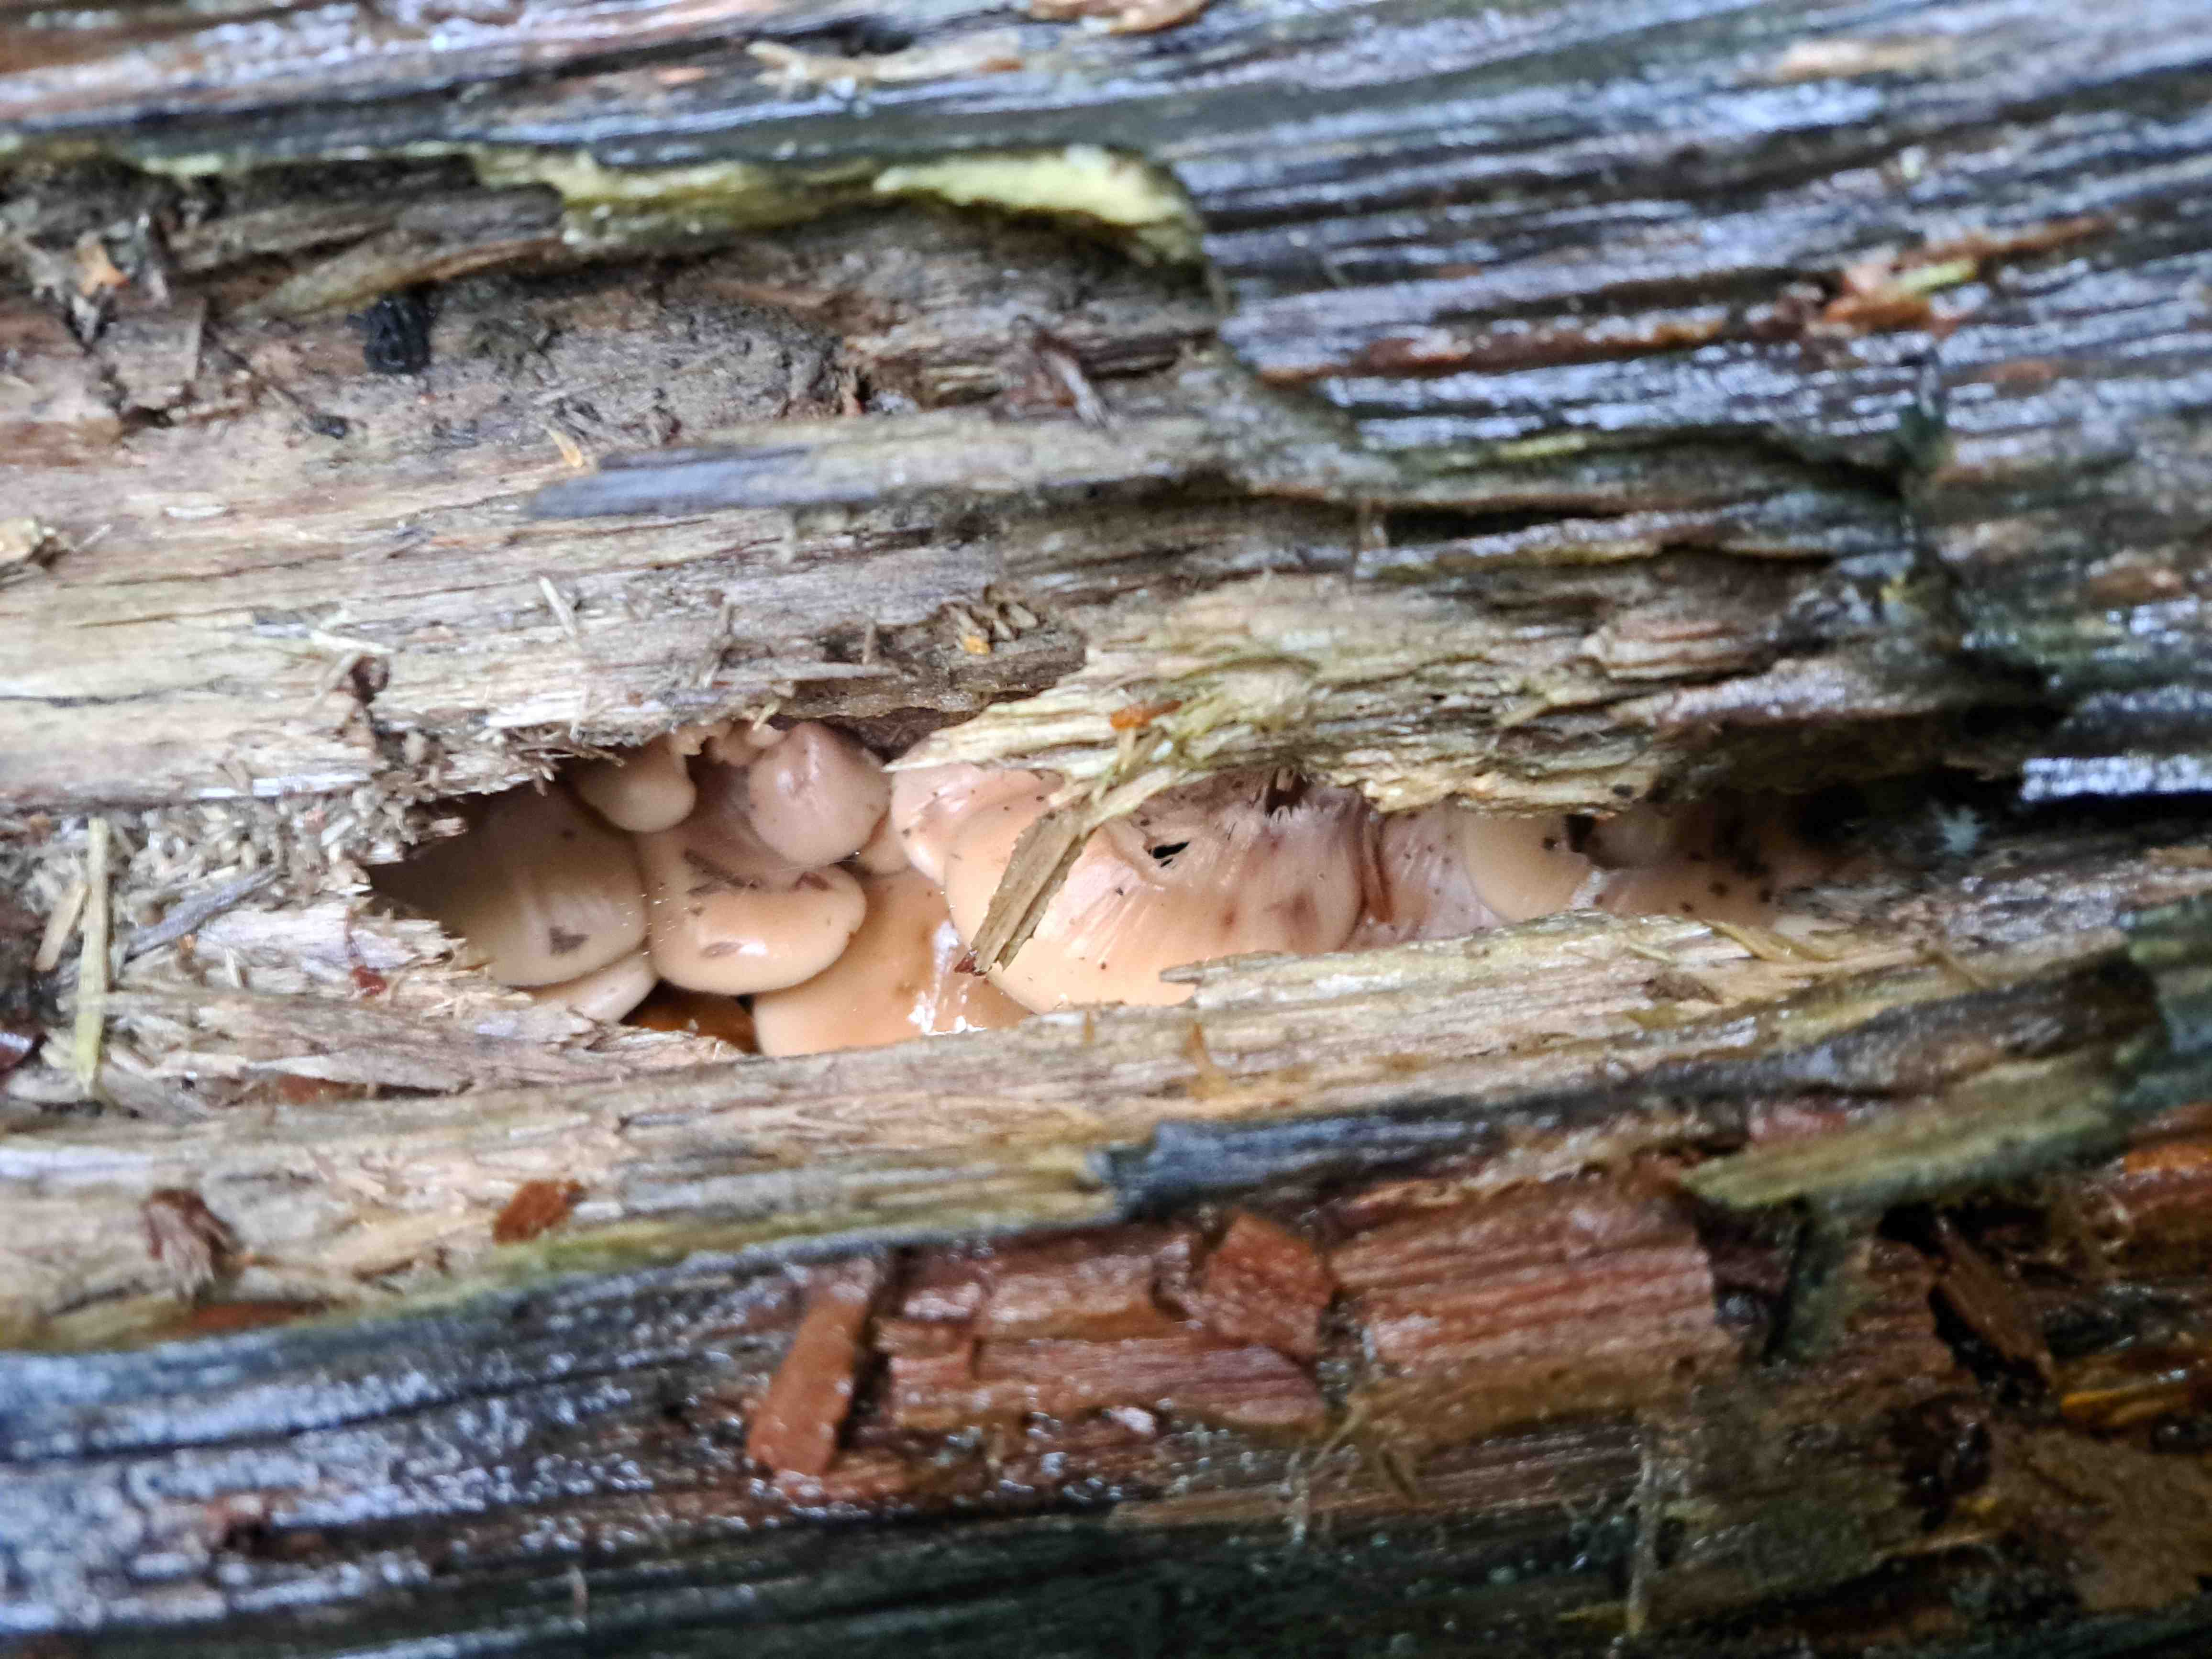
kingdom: Fungi
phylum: Basidiomycota
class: Agaricomycetes
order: Russulales
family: Auriscalpiaceae
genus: Lentinellus
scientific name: Lentinellus
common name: savbladhat
